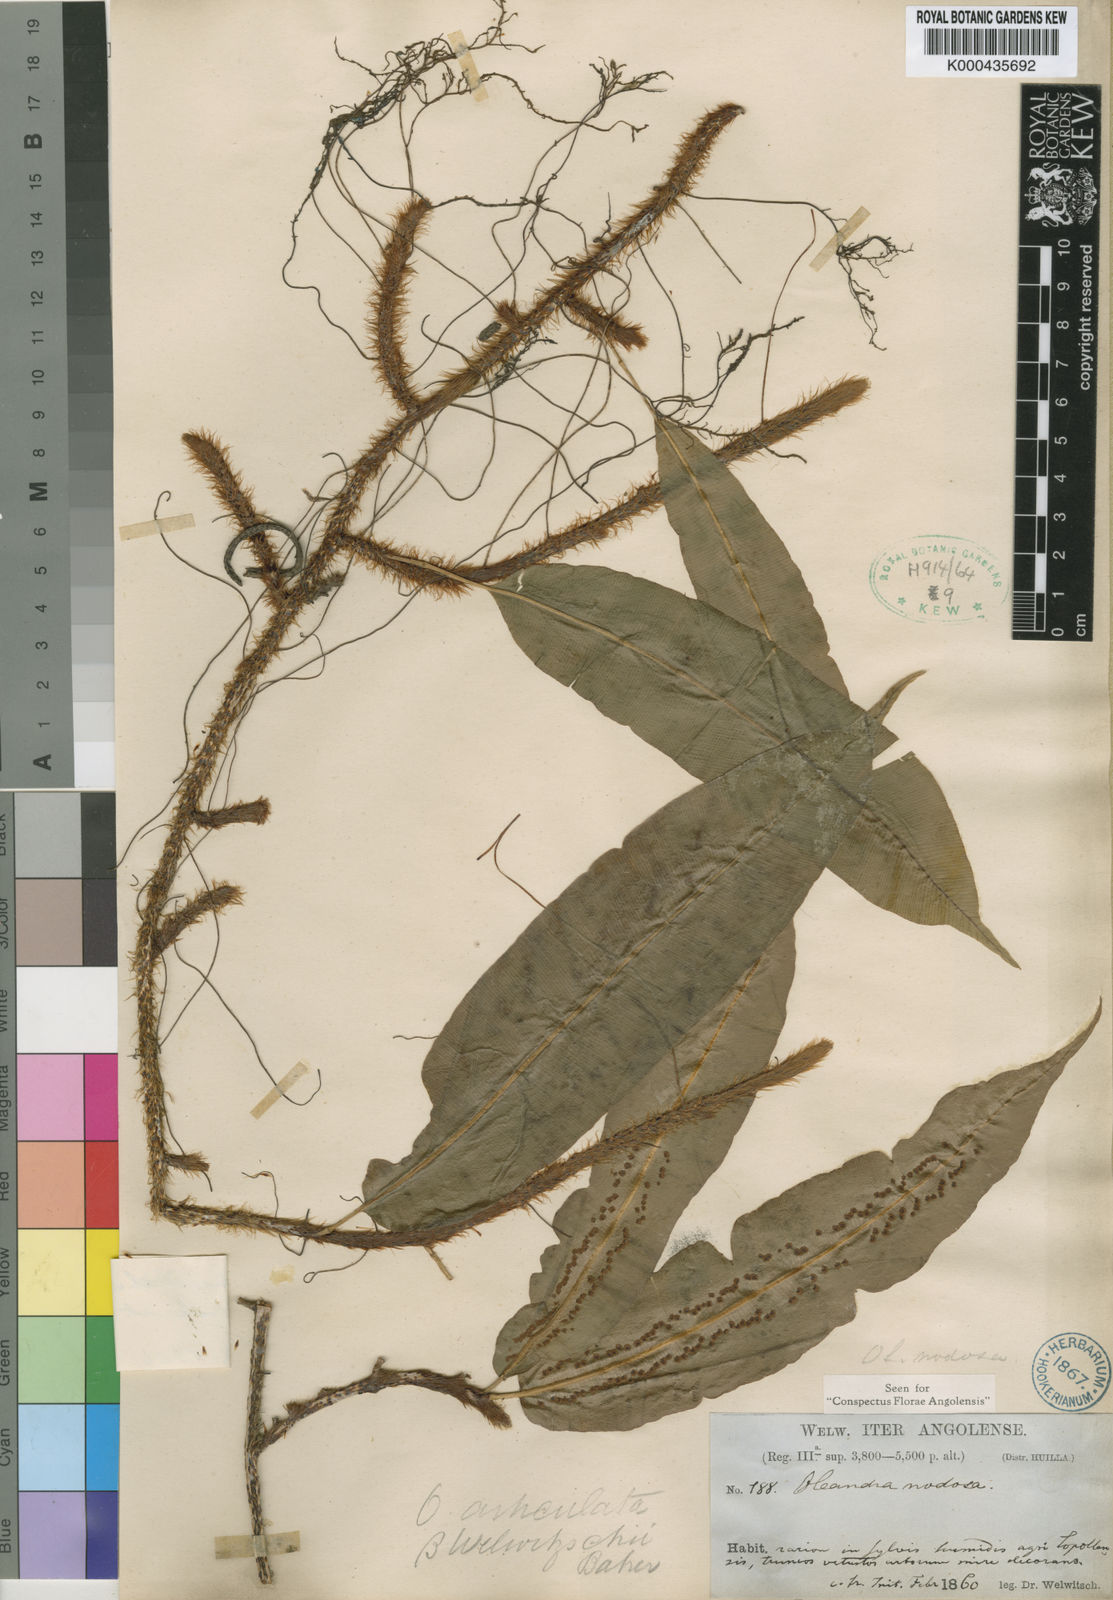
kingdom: Plantae
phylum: Tracheophyta
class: Polypodiopsida
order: Polypodiales
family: Oleandraceae
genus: Oleandra
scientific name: Oleandra distenta
